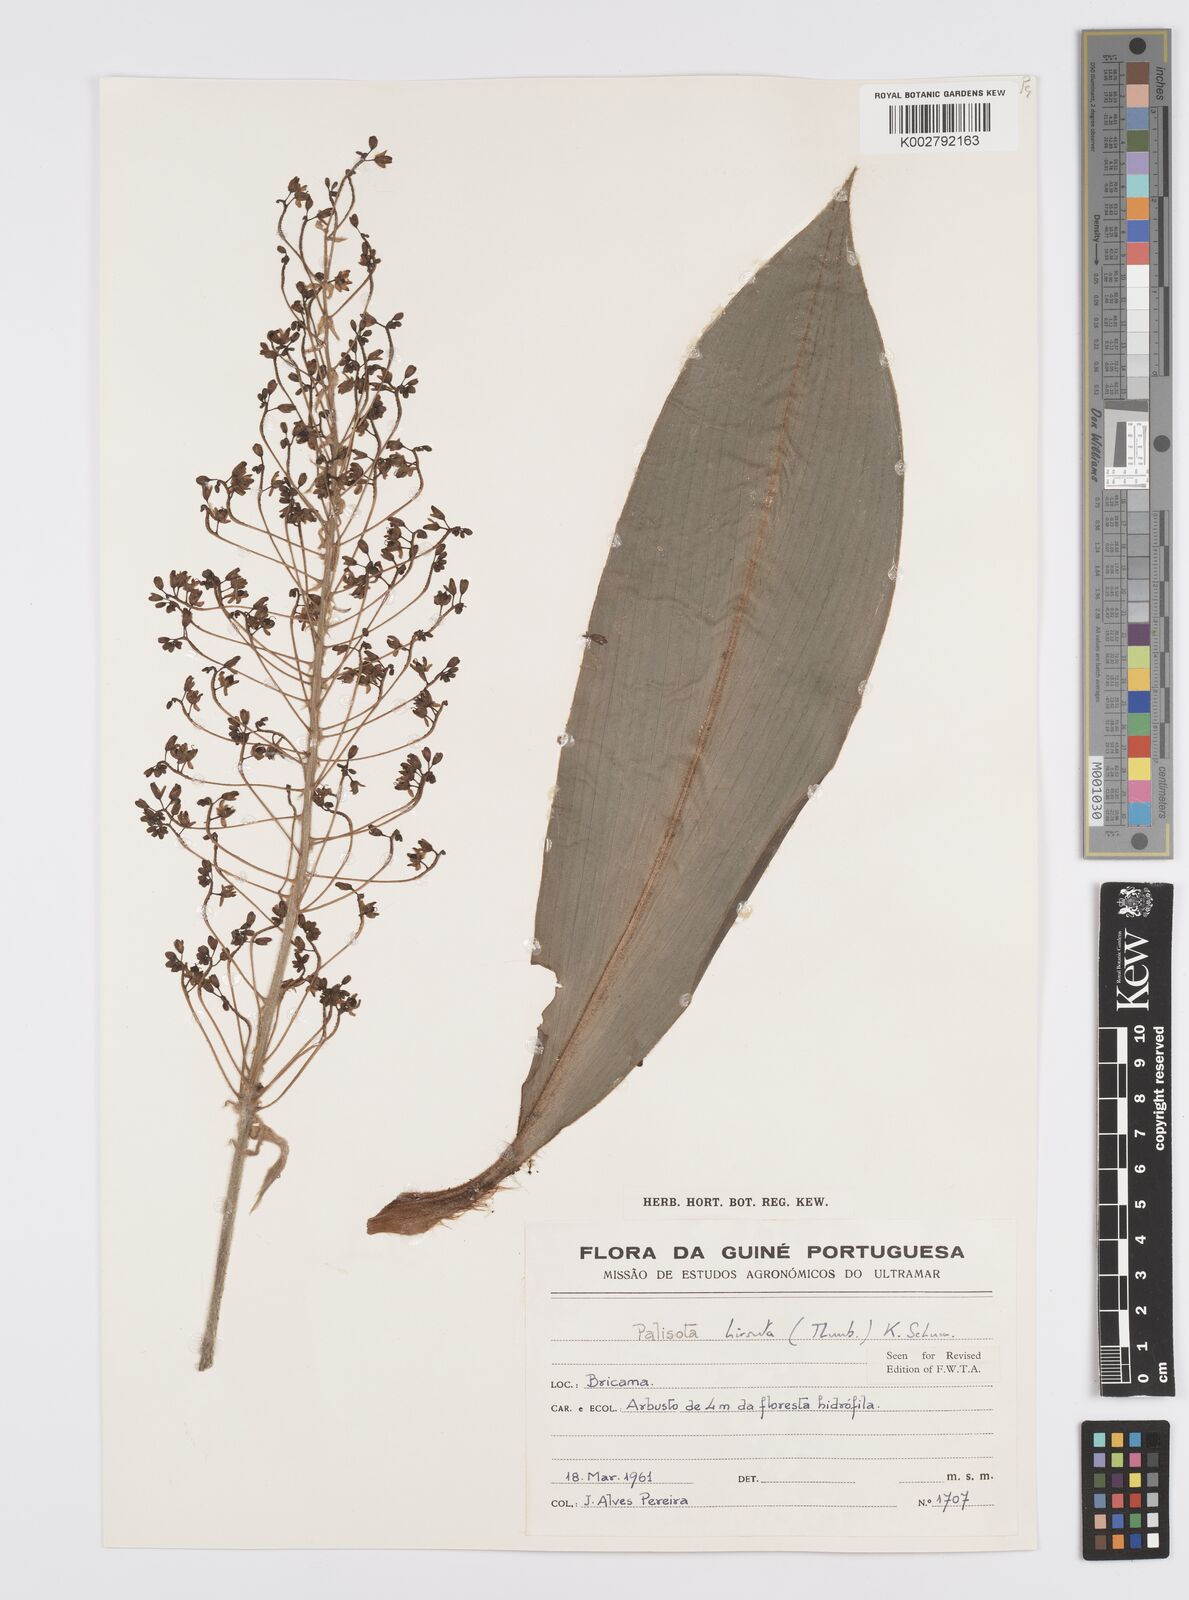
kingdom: Plantae
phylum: Tracheophyta
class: Liliopsida
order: Commelinales
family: Commelinaceae
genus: Palisota
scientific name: Palisota hirsuta
